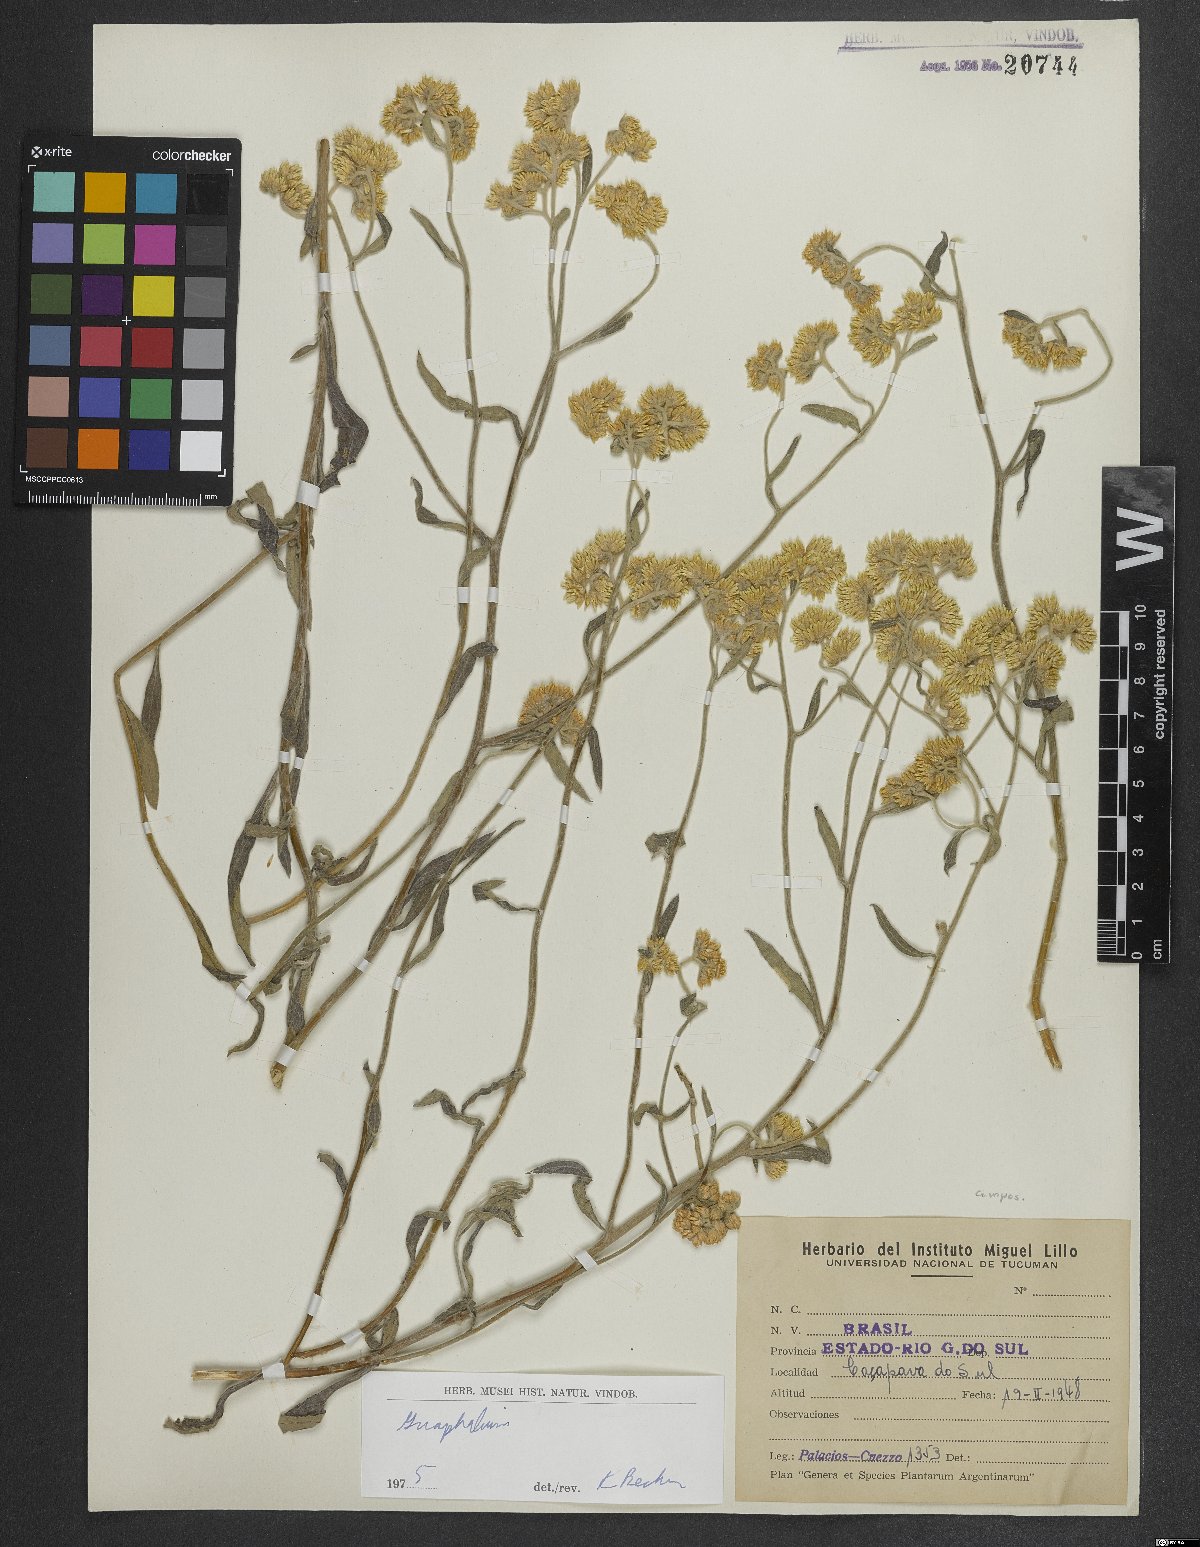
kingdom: Plantae
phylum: Tracheophyta
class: Magnoliopsida
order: Asterales
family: Asteraceae
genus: Gnaphalium
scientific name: Gnaphalium
